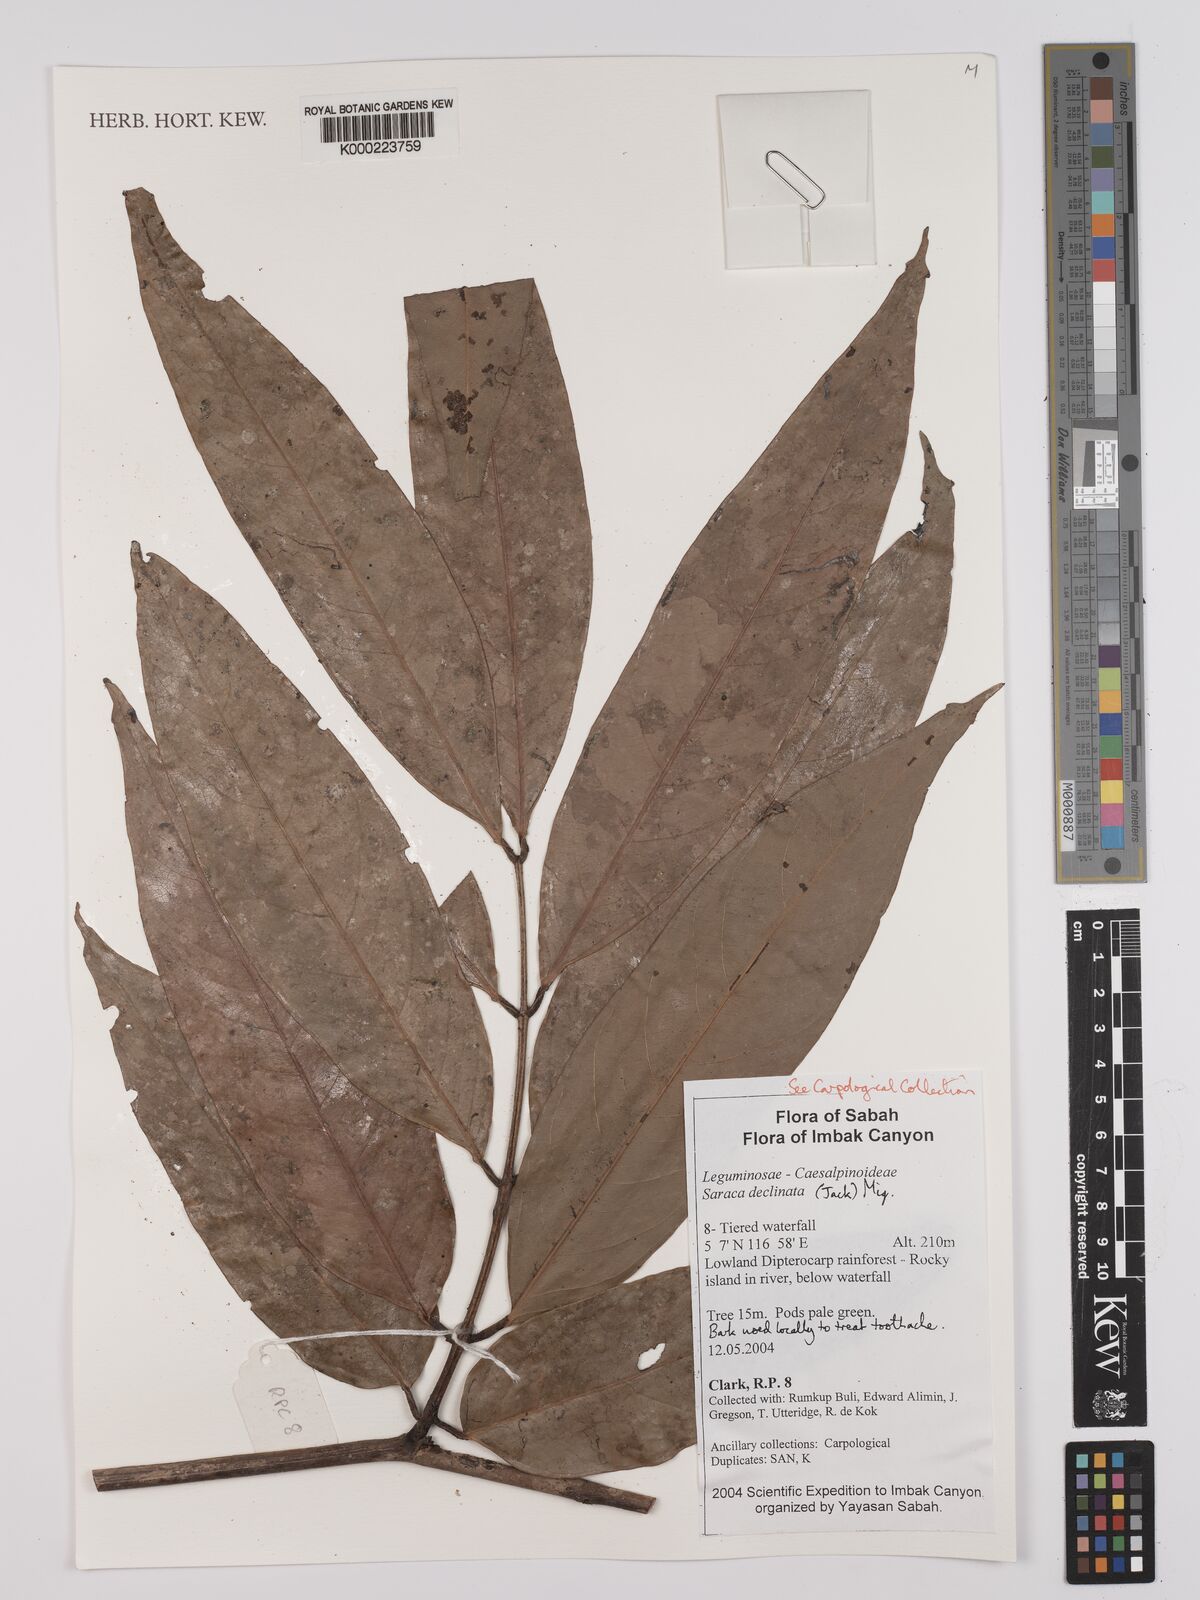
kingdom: Plantae
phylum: Tracheophyta
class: Magnoliopsida
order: Fabales
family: Fabaceae
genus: Saraca
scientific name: Saraca declinata
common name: Red saraca
